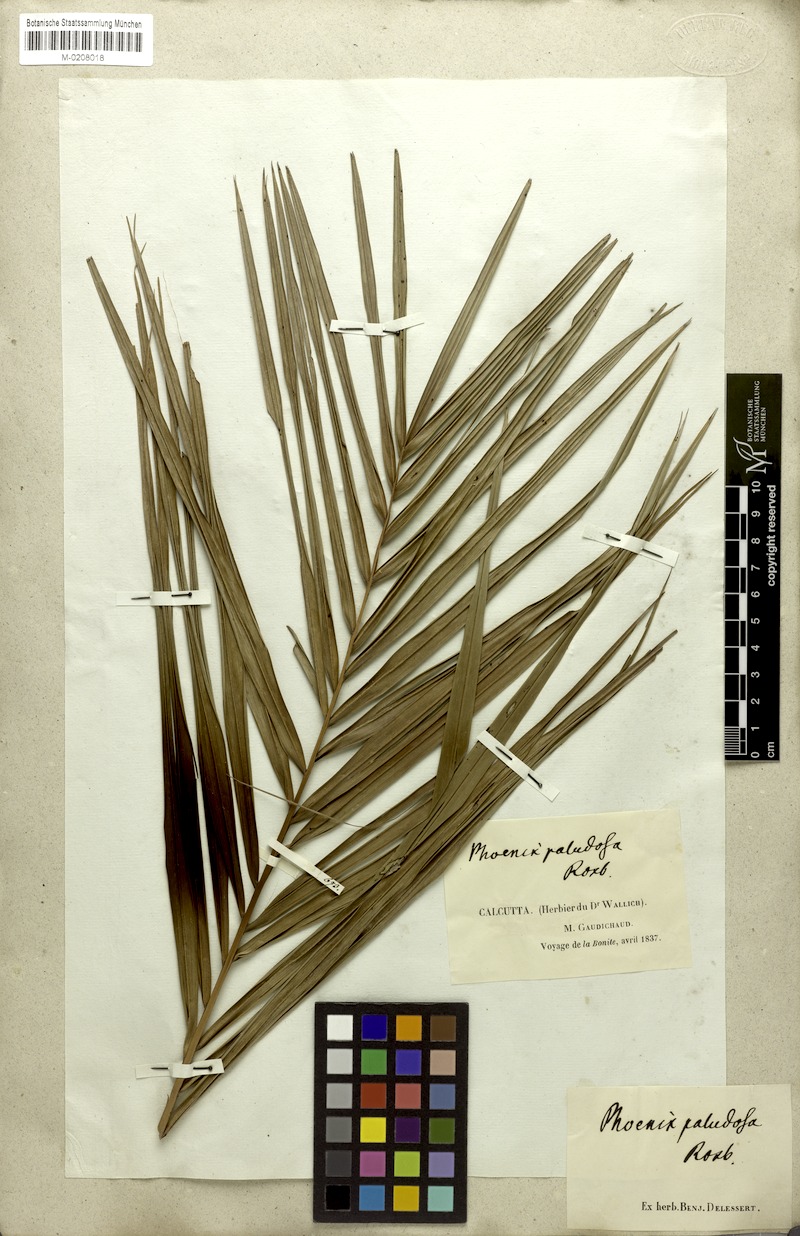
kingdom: Plantae
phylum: Tracheophyta
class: Liliopsida
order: Arecales
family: Arecaceae
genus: Phoenix
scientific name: Phoenix paludosa
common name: Mangrove date palm
